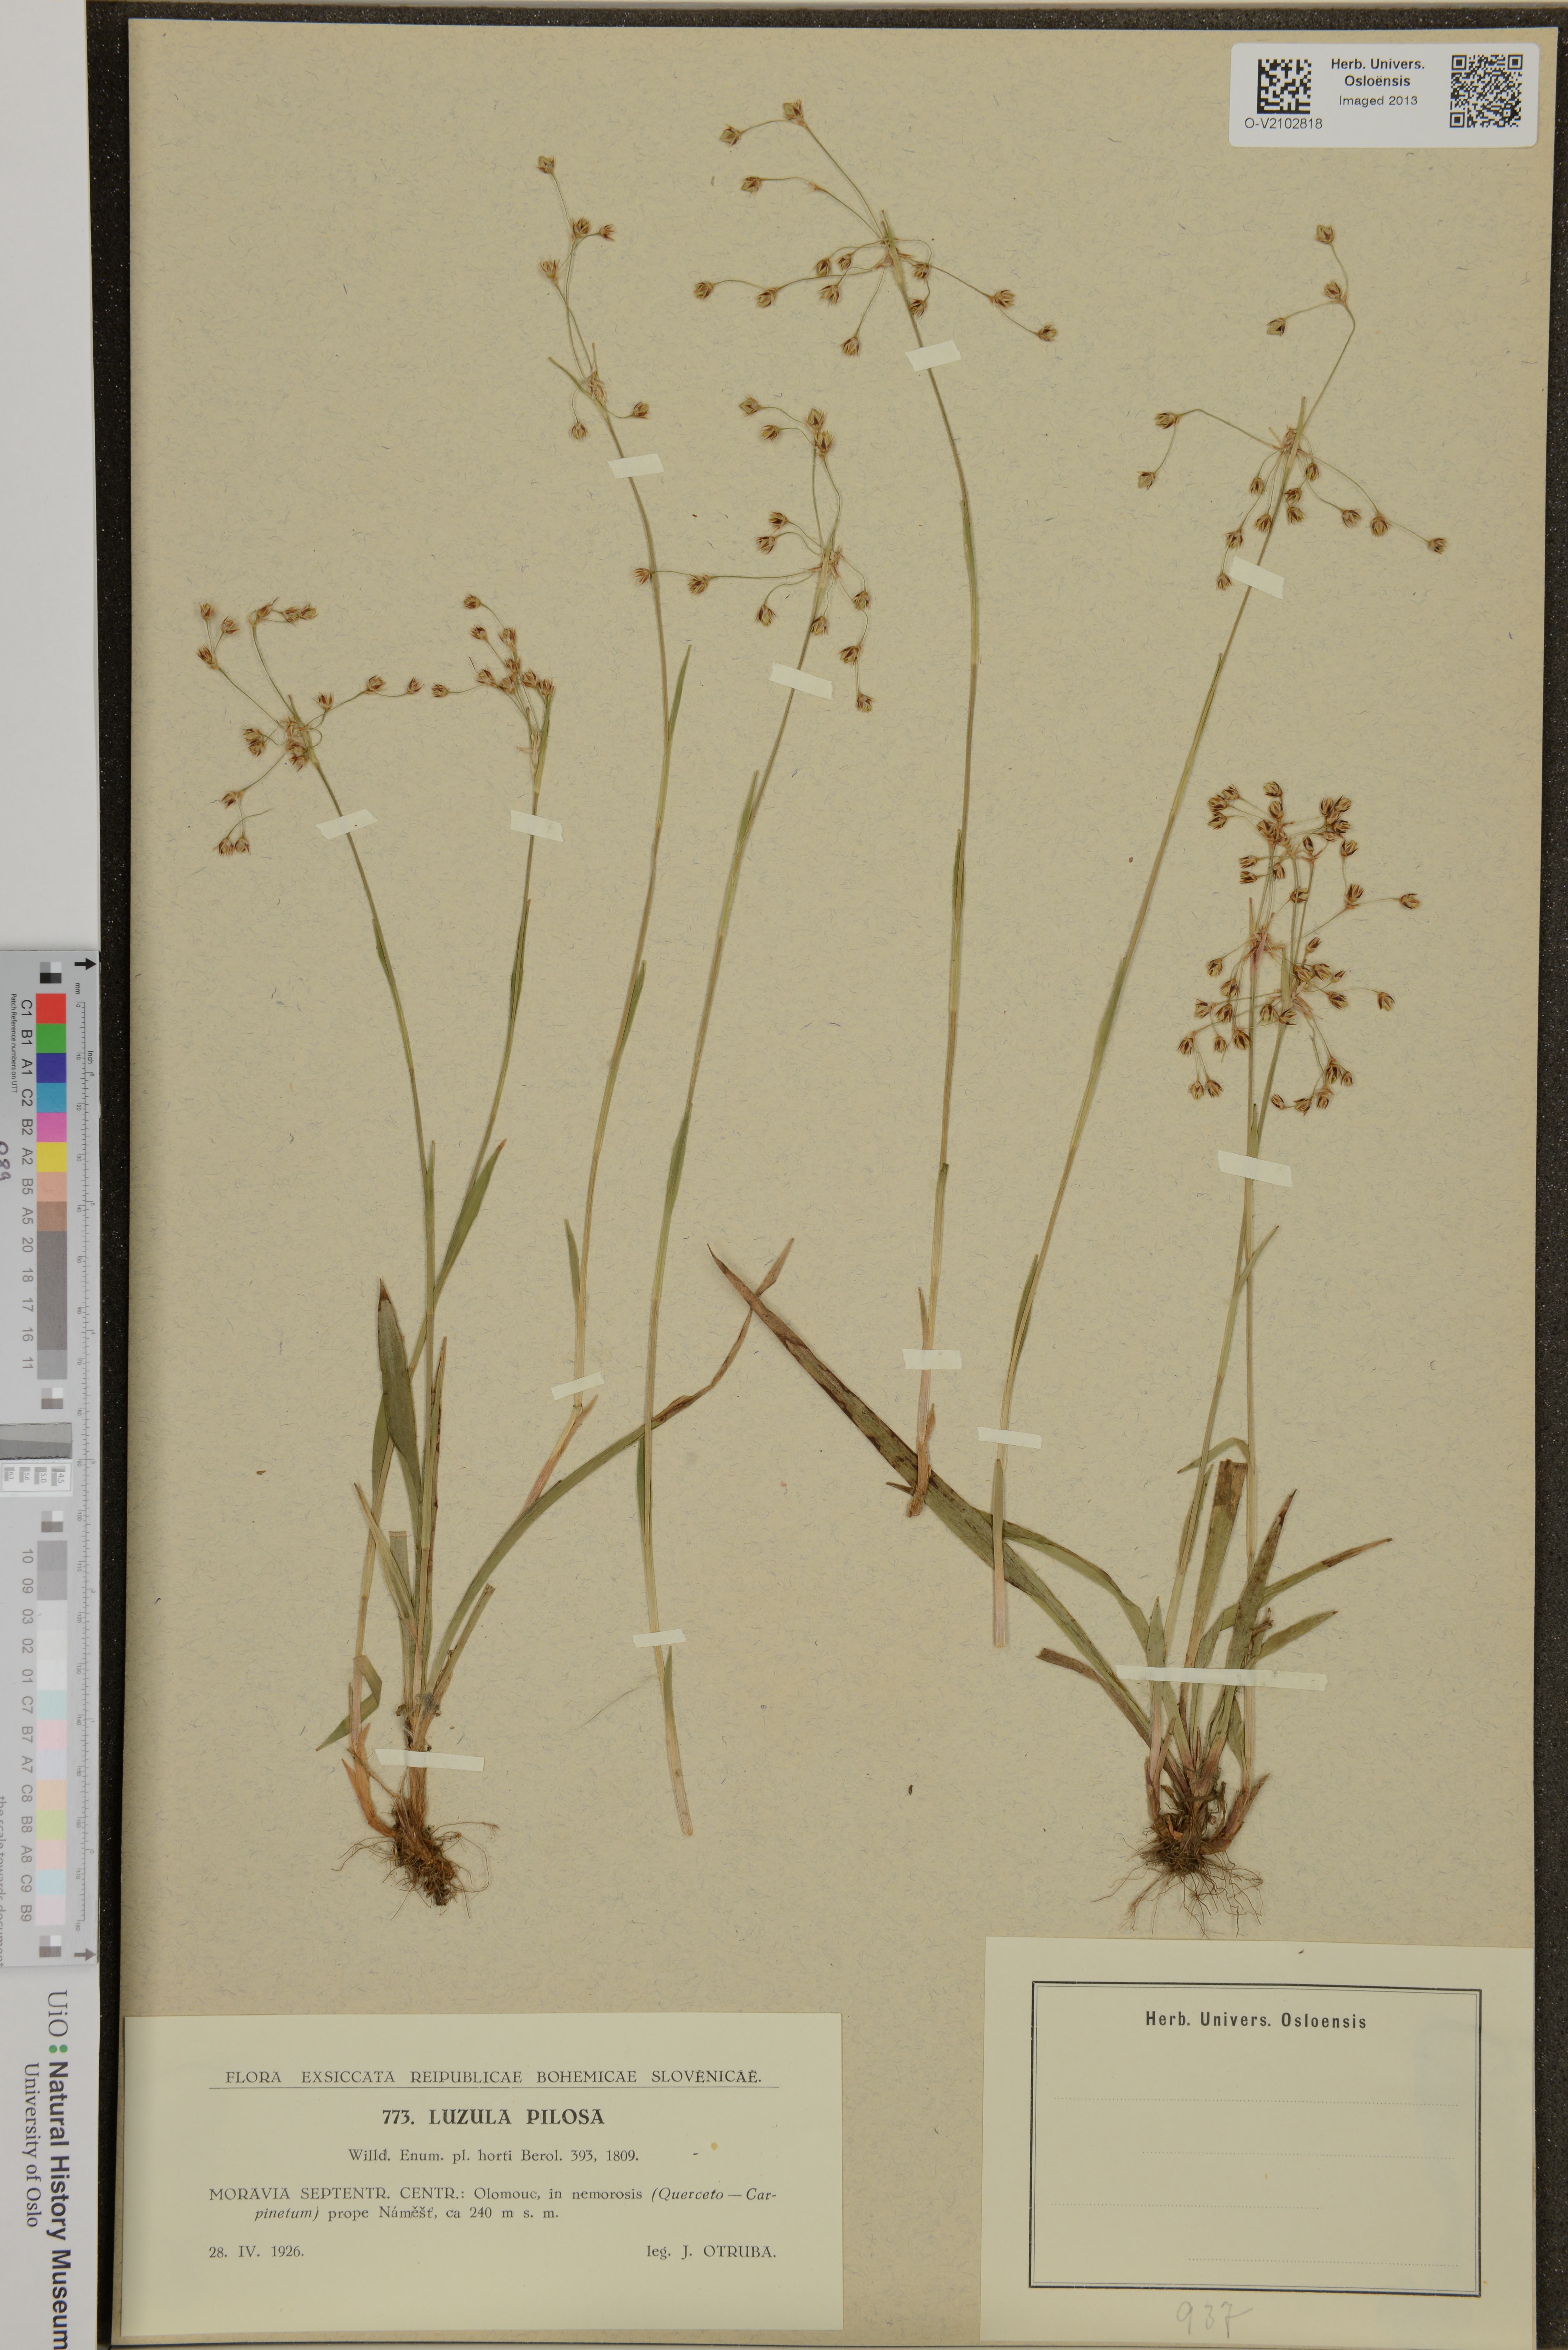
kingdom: Plantae
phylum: Tracheophyta
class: Liliopsida
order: Poales
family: Juncaceae
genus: Luzula
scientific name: Luzula pilosa
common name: Hairy wood-rush
